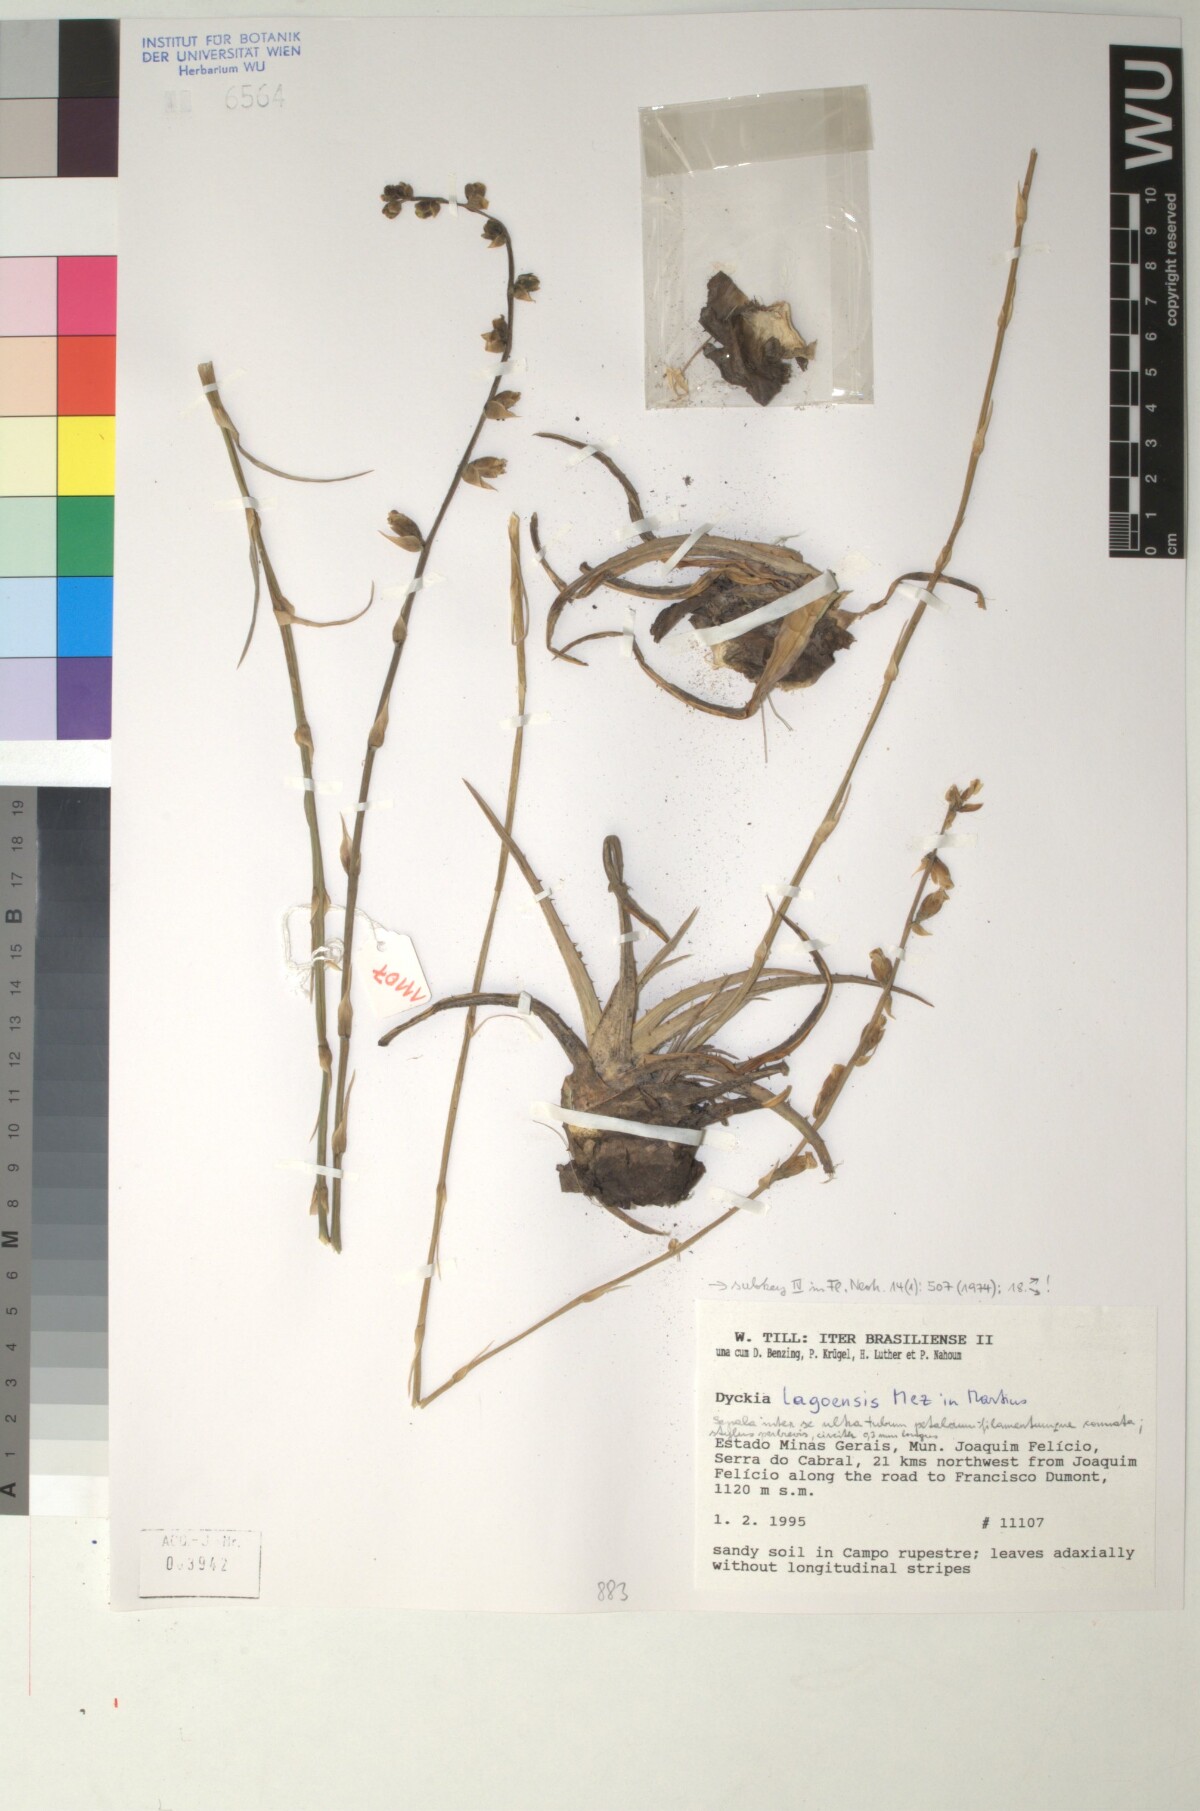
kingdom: Plantae
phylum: Tracheophyta
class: Liliopsida
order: Poales
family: Bromeliaceae
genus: Dyckia
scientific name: Dyckia lagoensis
